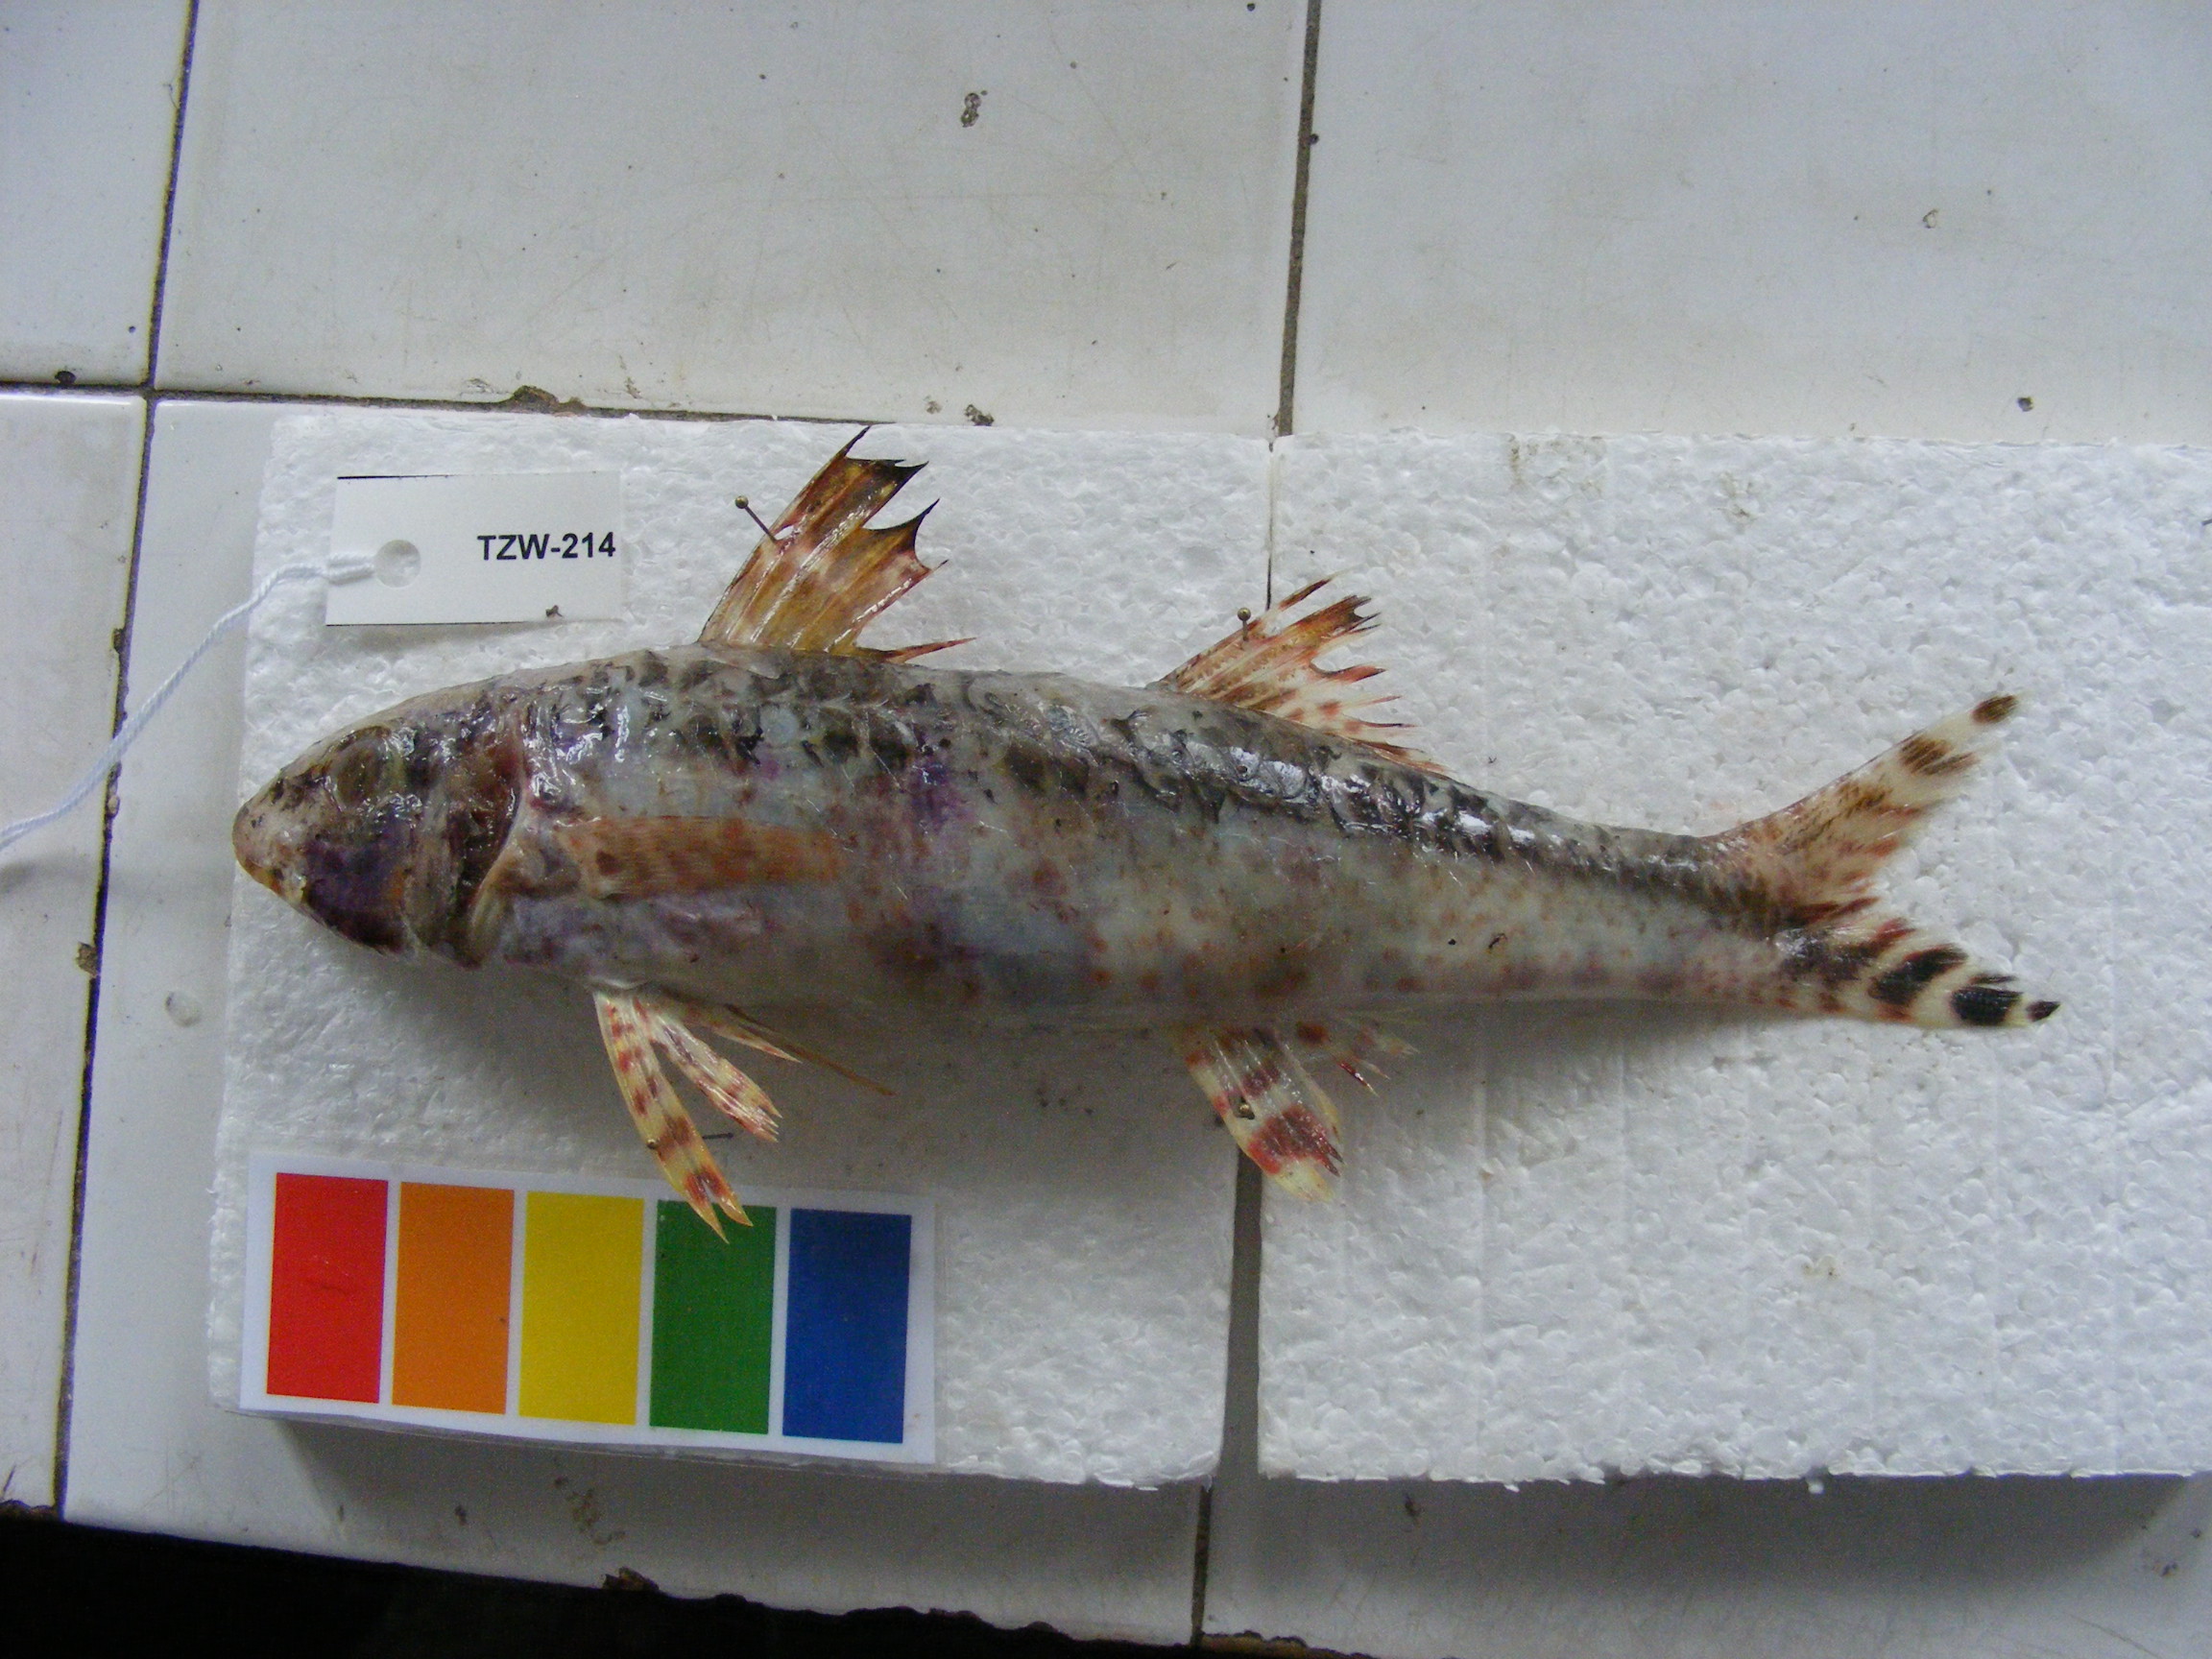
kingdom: Animalia
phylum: Chordata
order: Perciformes
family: Mullidae
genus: Upeneus
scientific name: Upeneus heemstra
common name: Heemstra’s goatfish
